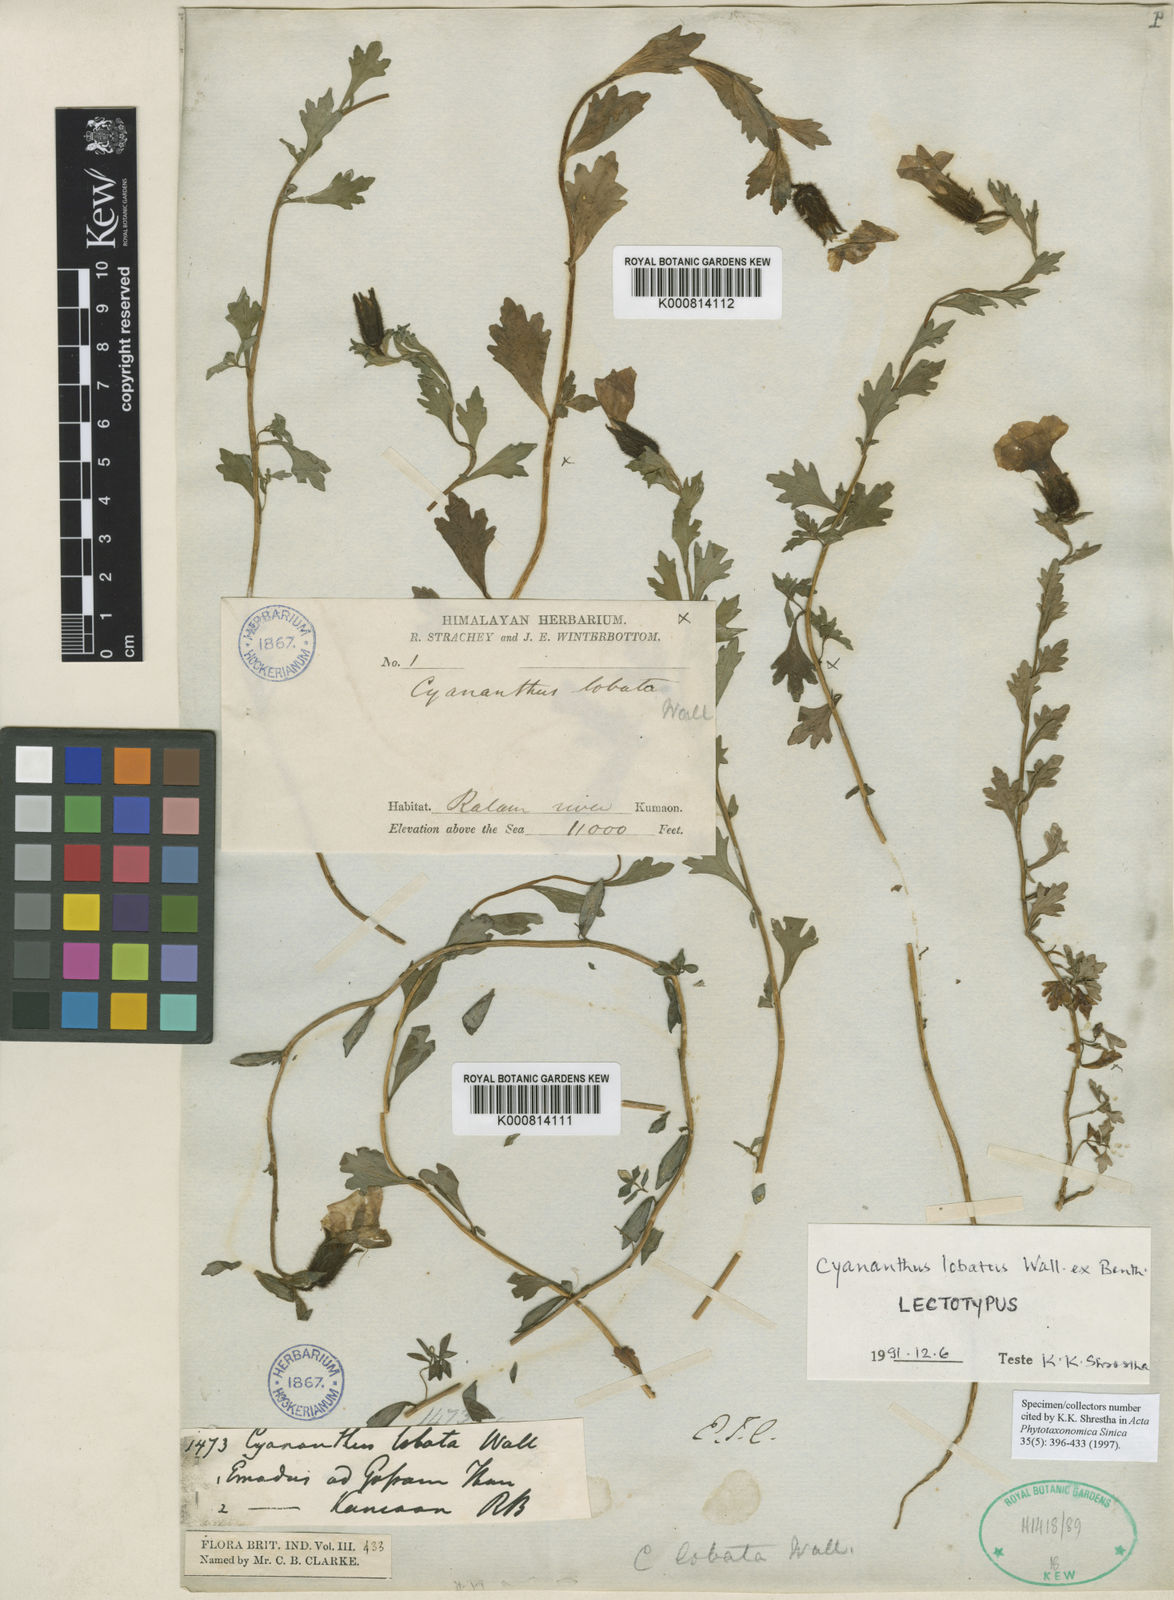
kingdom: Plantae
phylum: Tracheophyta
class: Magnoliopsida
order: Asterales
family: Campanulaceae
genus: Cyananthus
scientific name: Cyananthus lobatus
